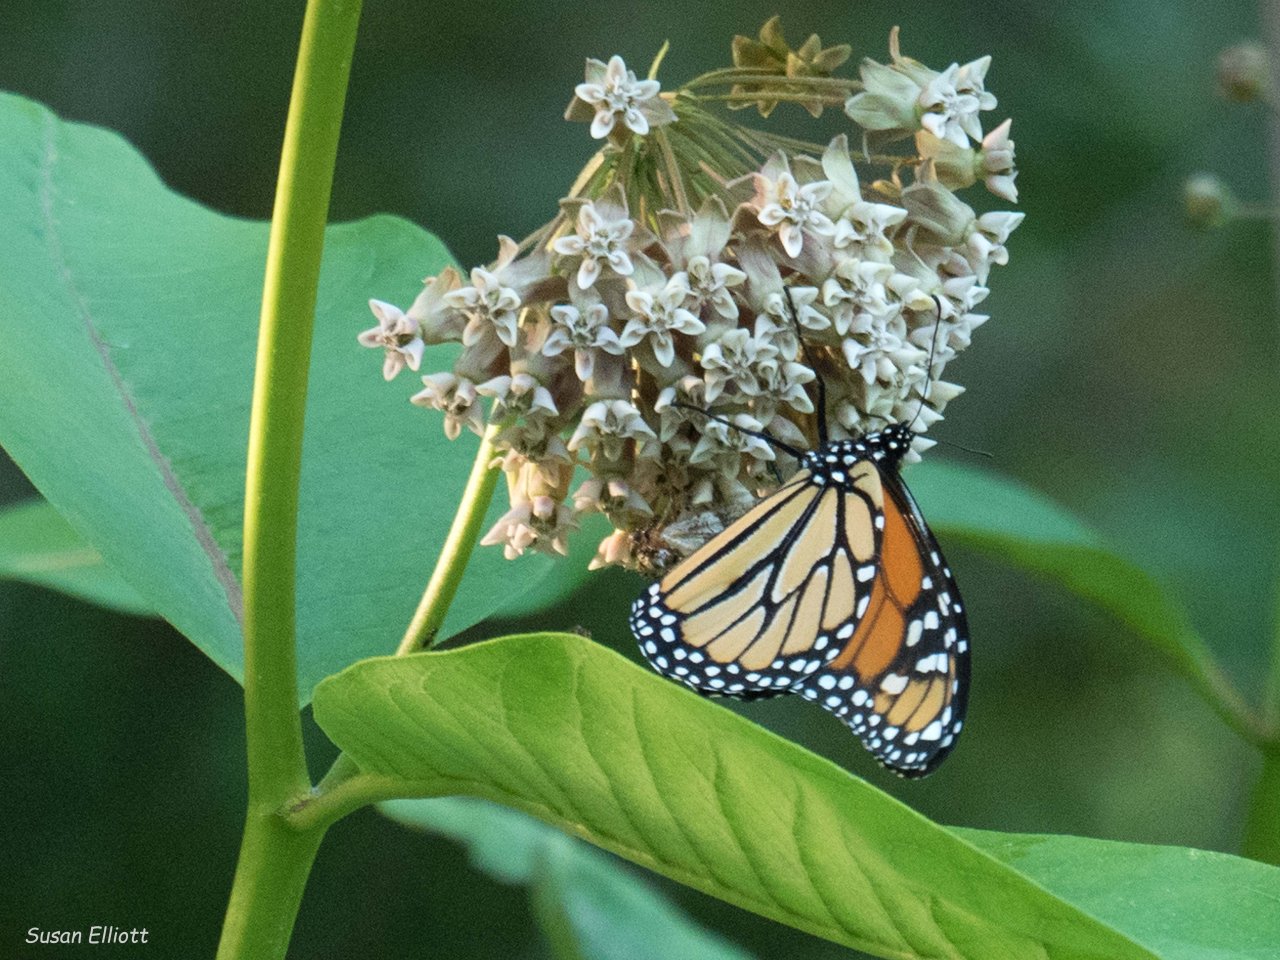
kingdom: Animalia
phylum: Arthropoda
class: Insecta
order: Lepidoptera
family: Nymphalidae
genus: Danaus
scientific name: Danaus plexippus
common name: Monarch
